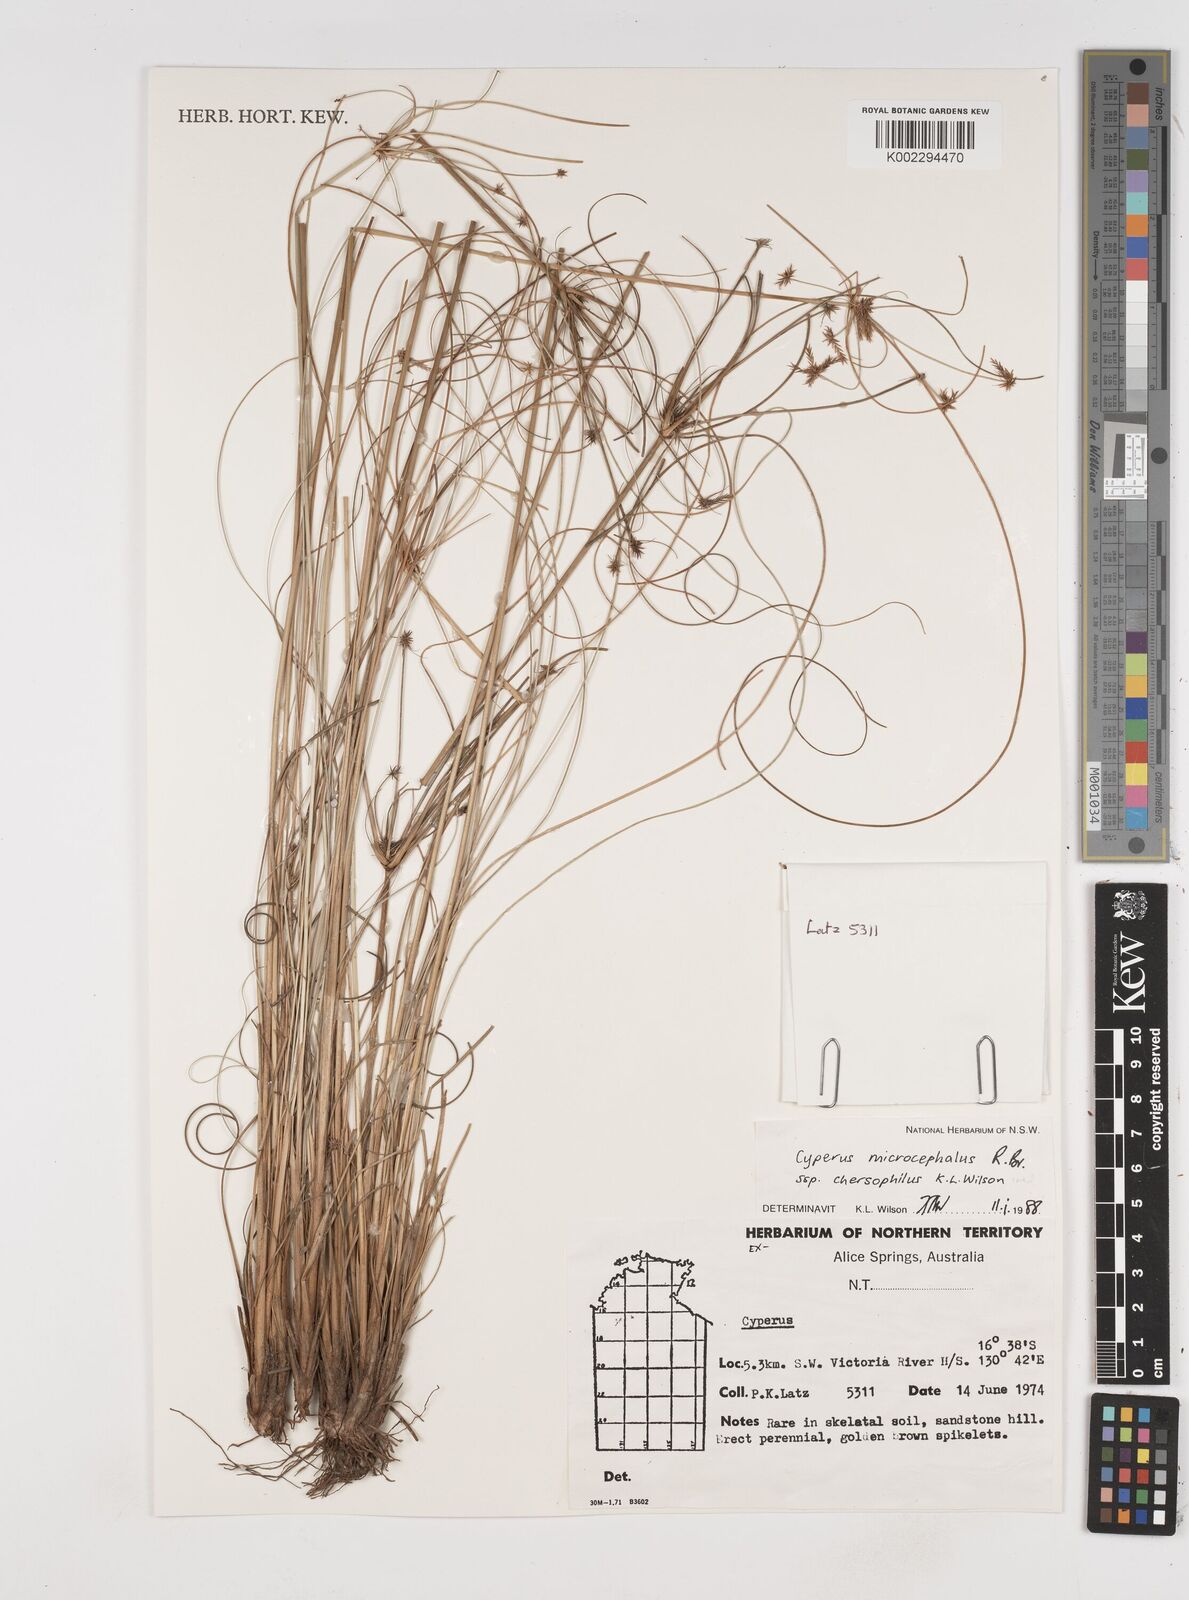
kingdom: Plantae
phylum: Tracheophyta
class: Liliopsida
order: Poales
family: Cyperaceae
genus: Cyperus
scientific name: Cyperus microcephalus
